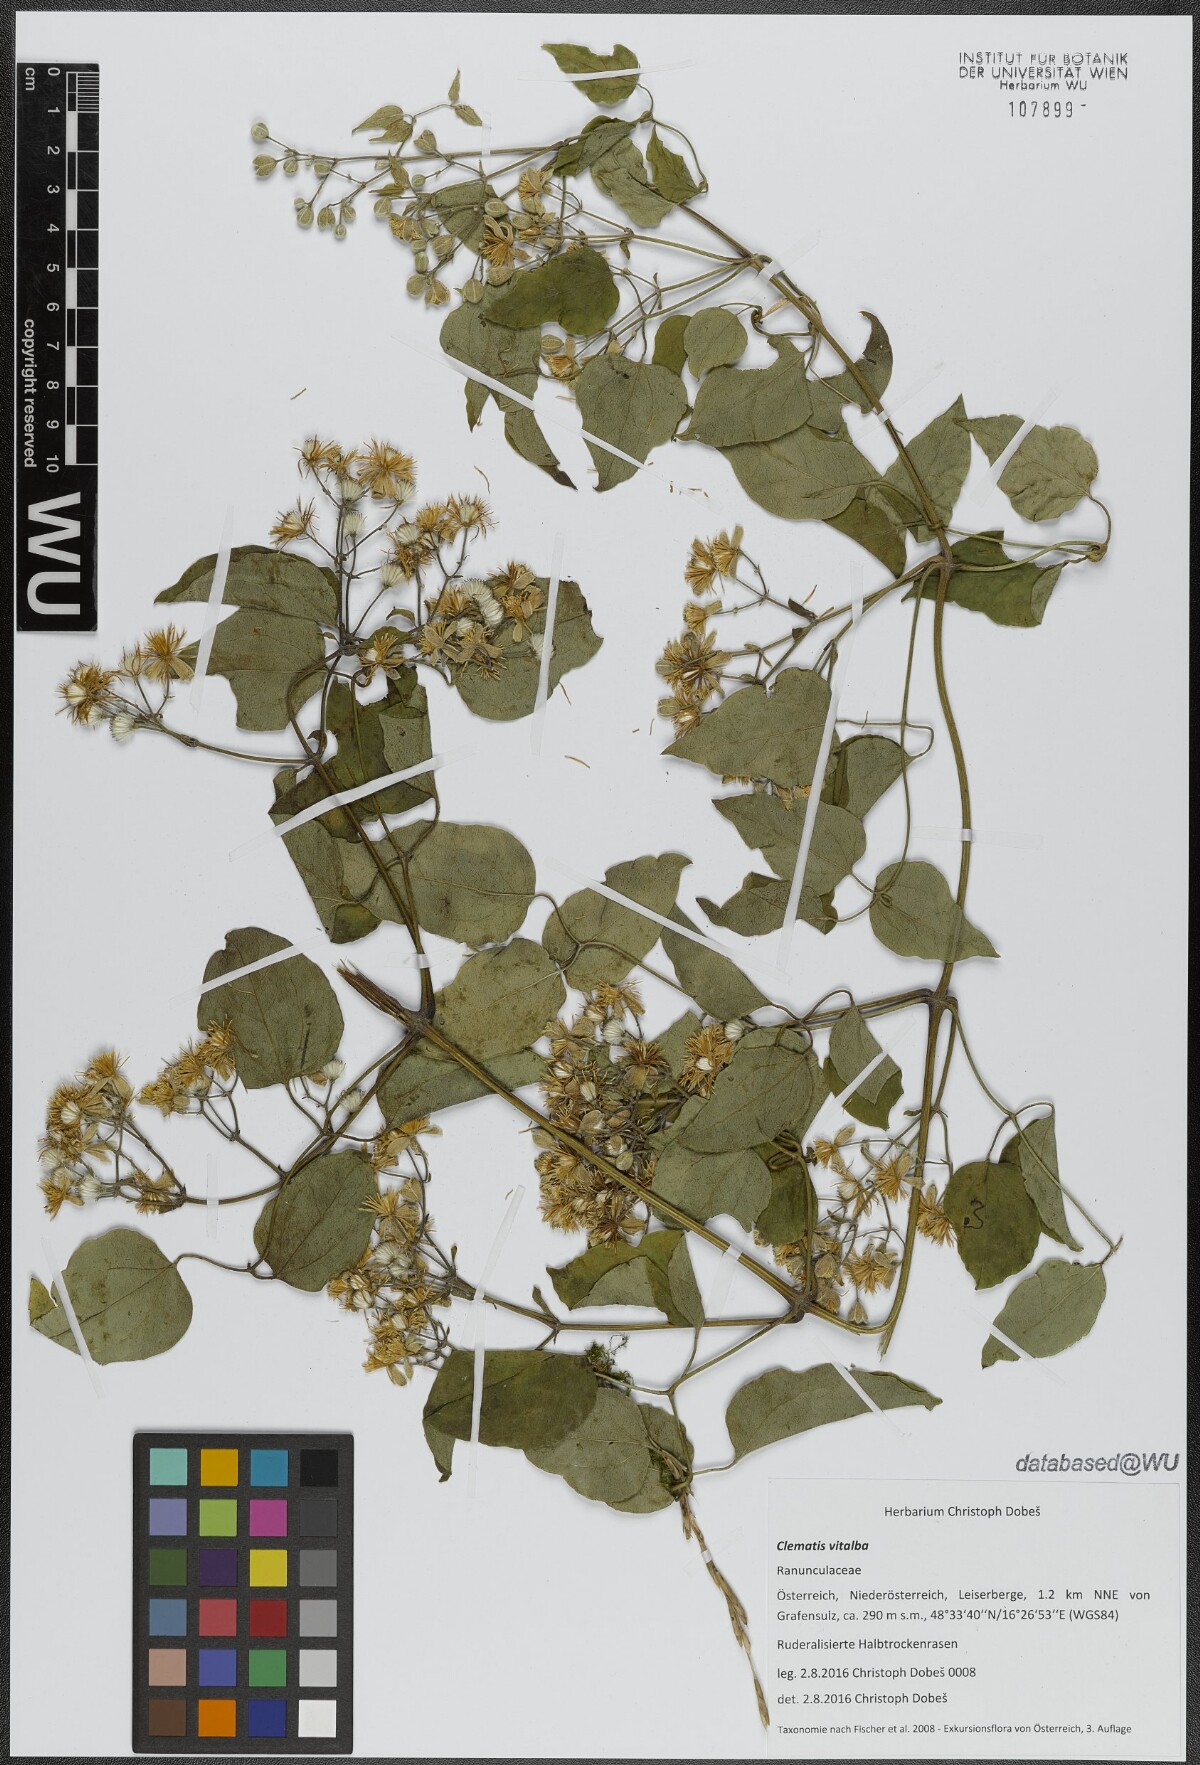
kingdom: Plantae
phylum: Tracheophyta
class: Magnoliopsida
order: Ranunculales
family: Ranunculaceae
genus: Clematis
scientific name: Clematis vitalba
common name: Evergreen clematis
